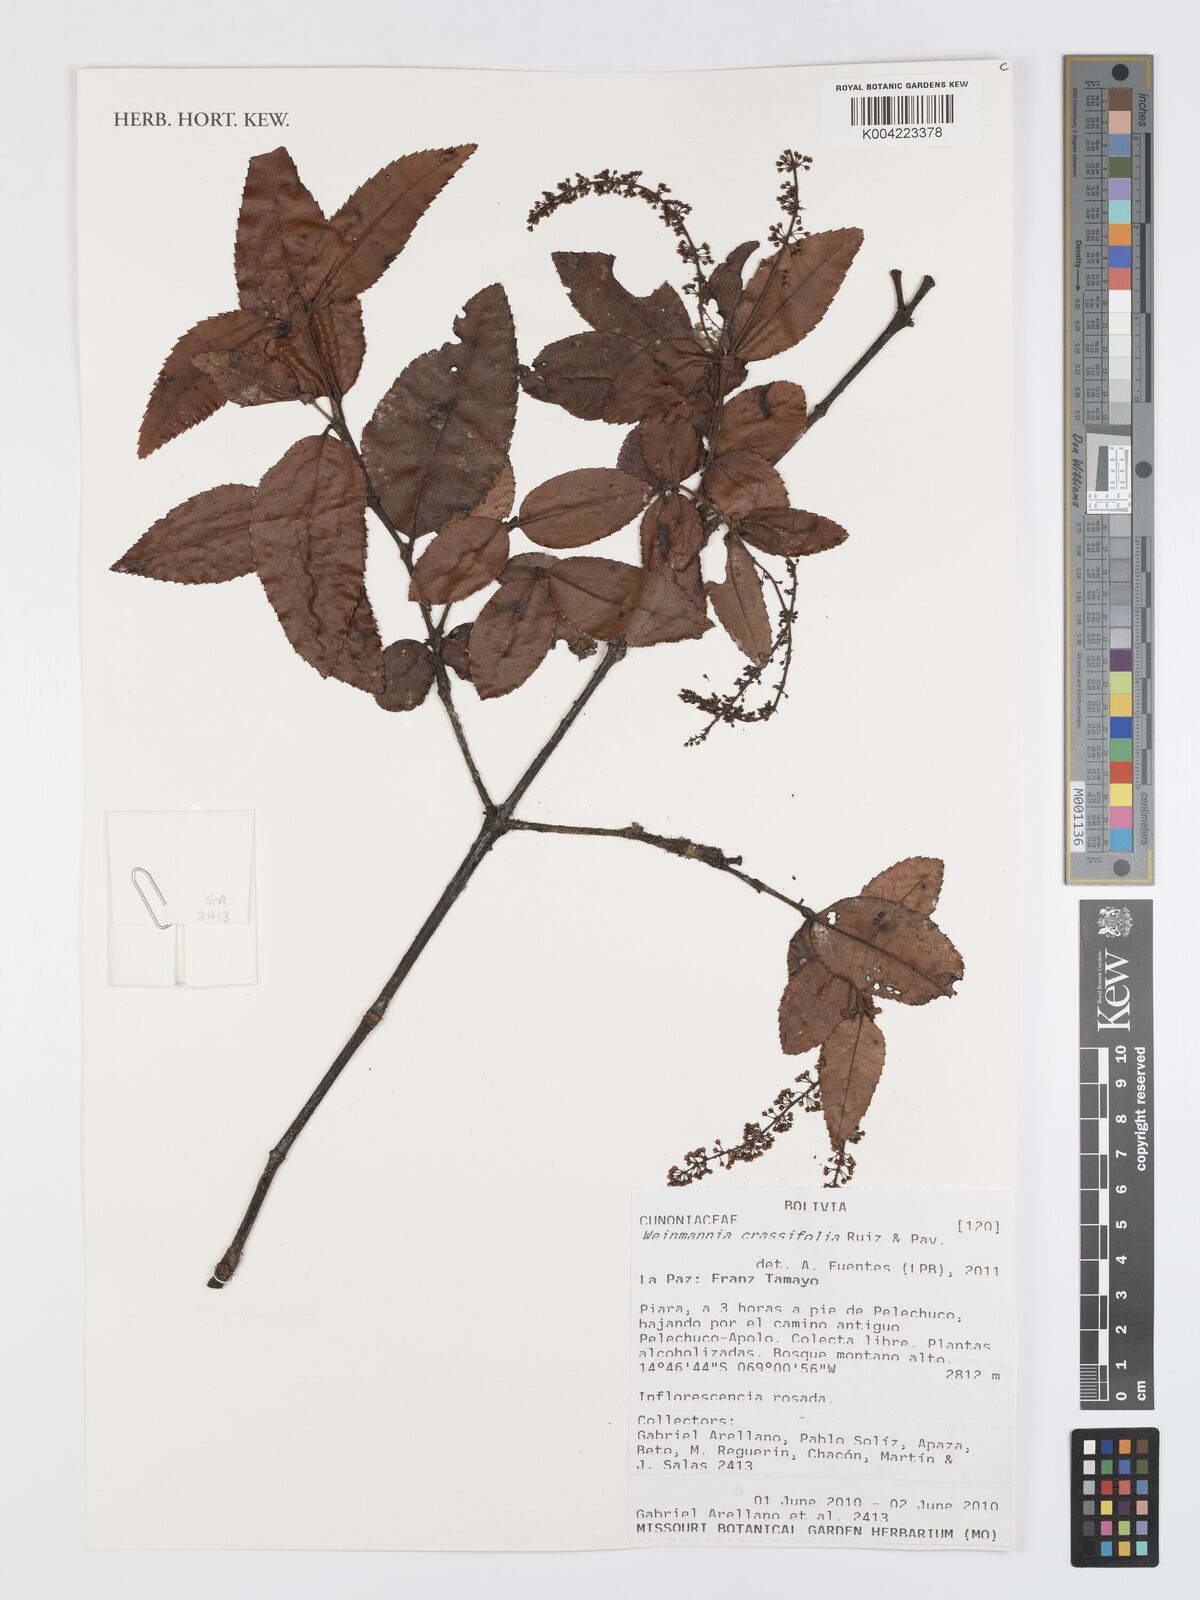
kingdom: Plantae
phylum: Tracheophyta
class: Magnoliopsida
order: Oxalidales
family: Cunoniaceae
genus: Weinmannia
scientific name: Weinmannia crassifolia
